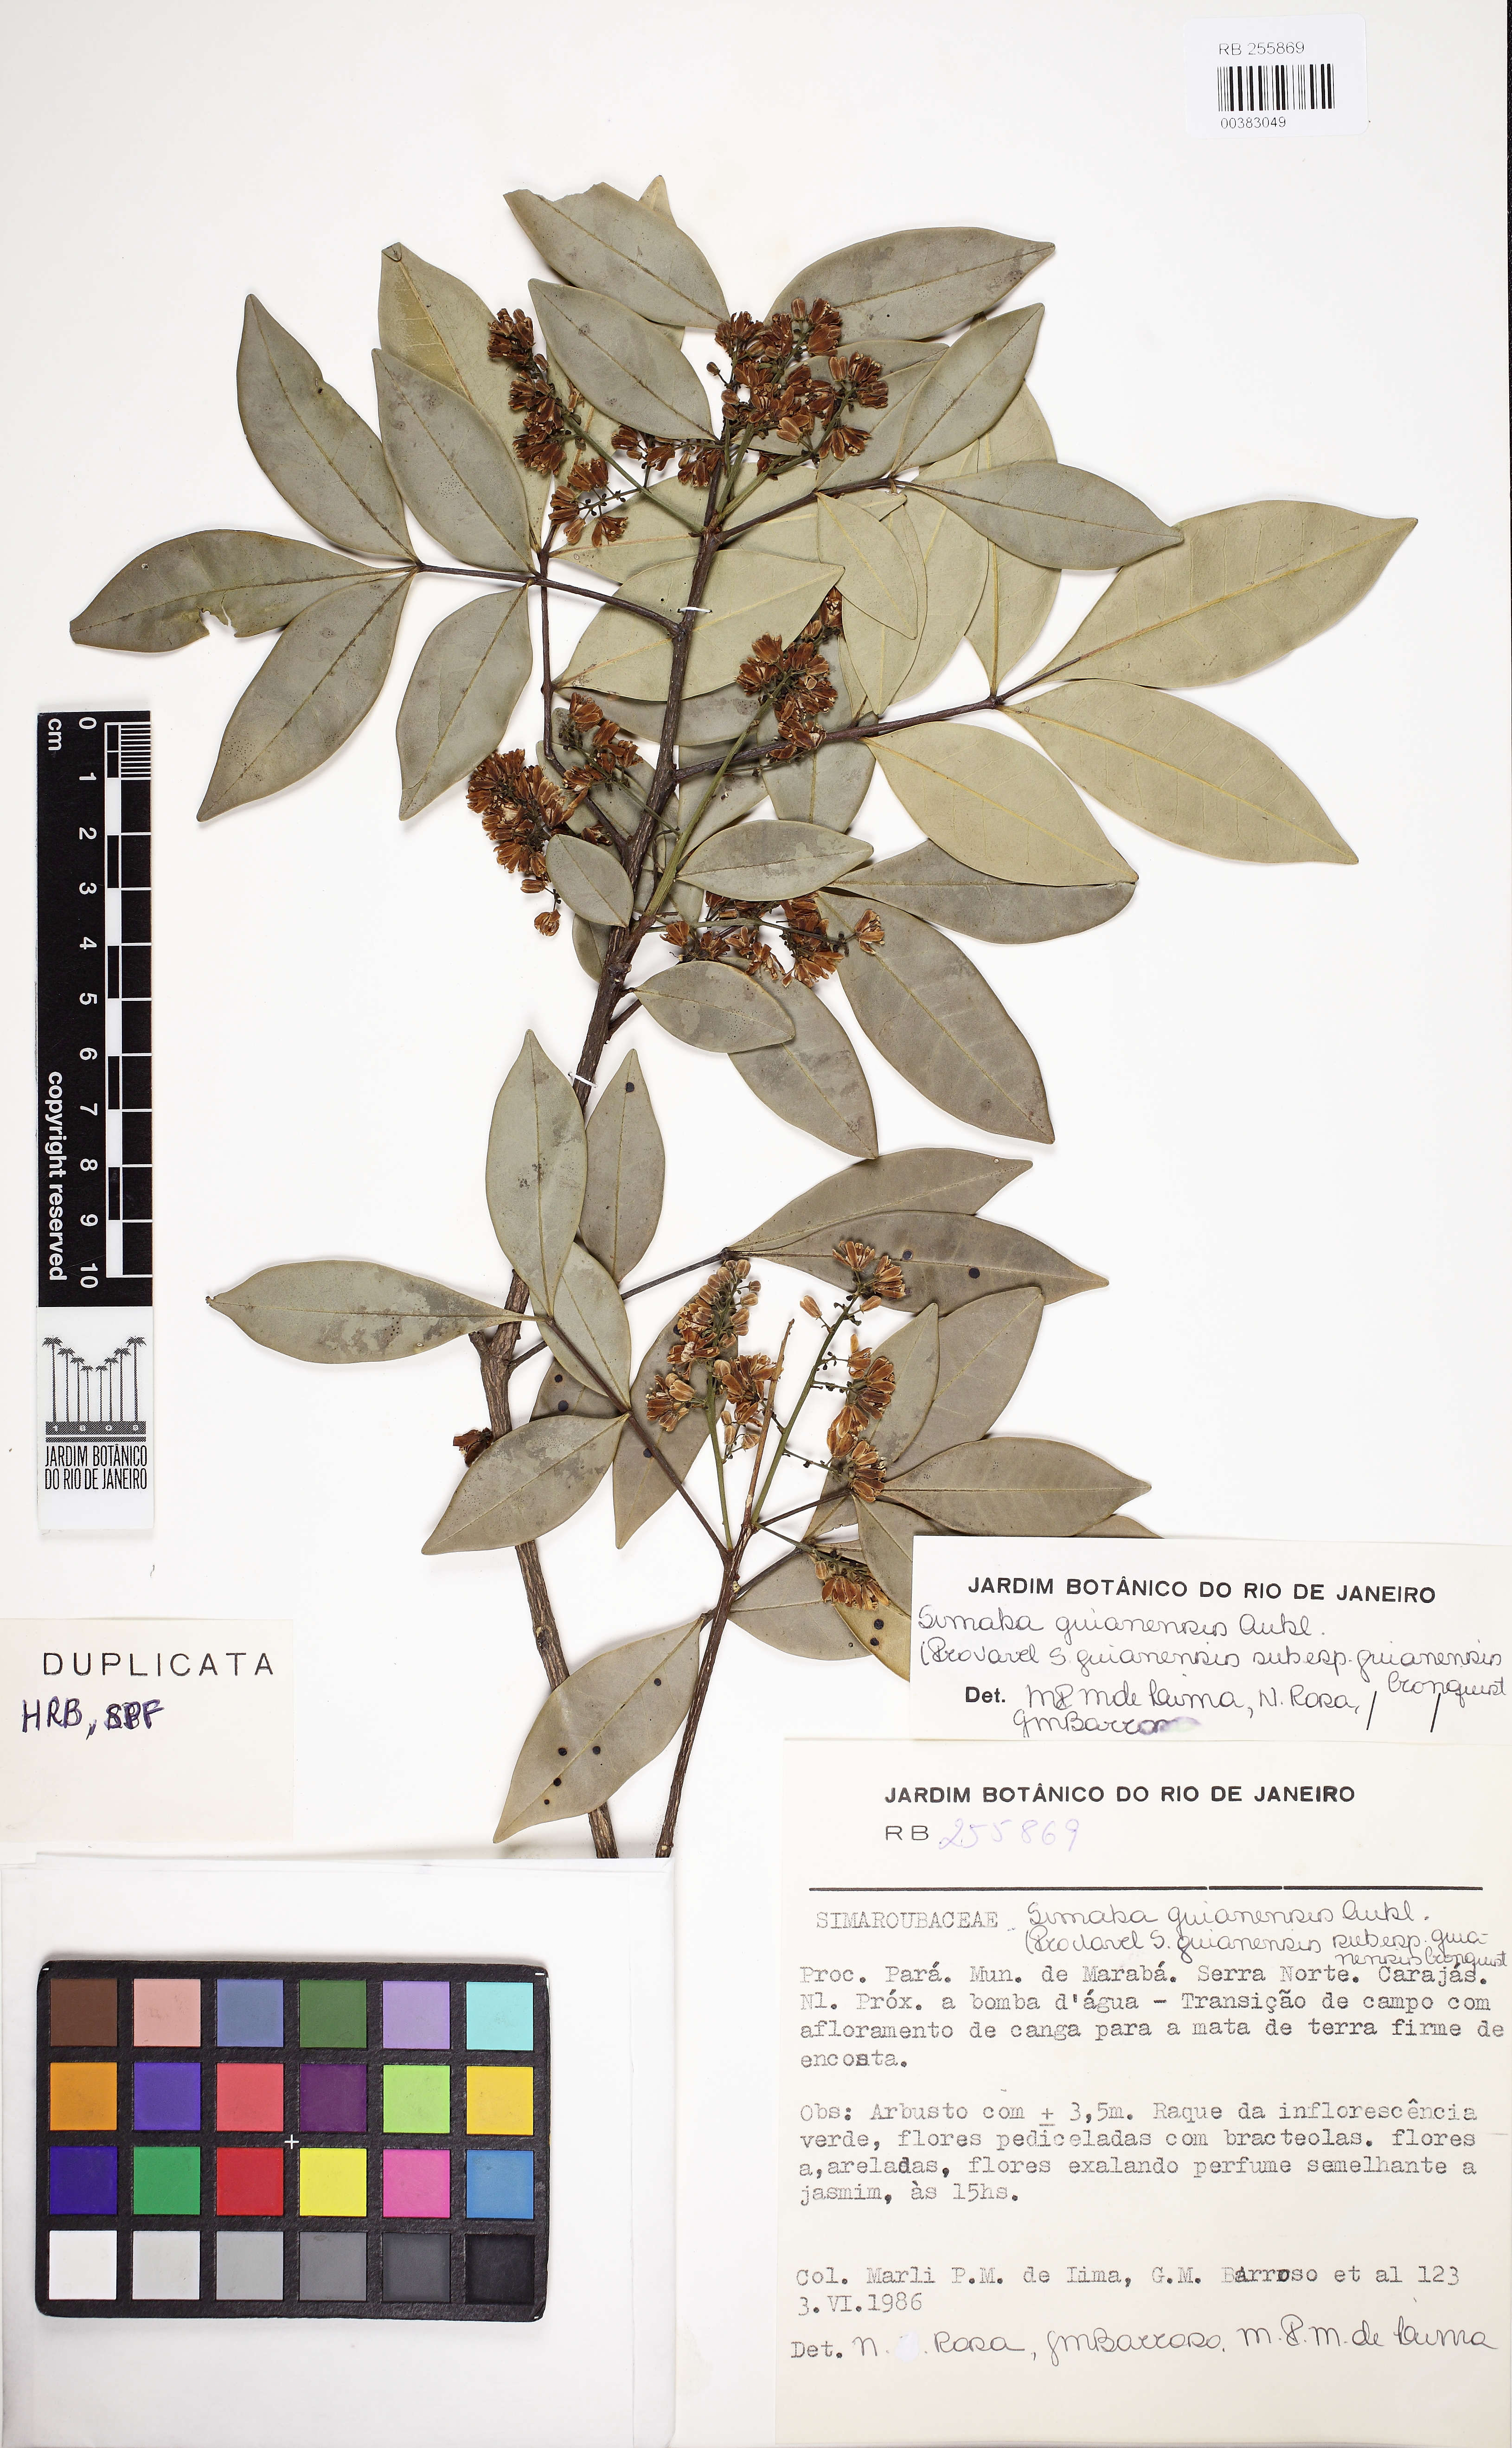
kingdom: Plantae
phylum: Tracheophyta
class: Magnoliopsida
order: Sapindales
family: Simaroubaceae
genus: Simaba
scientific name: Simaba guianensis
